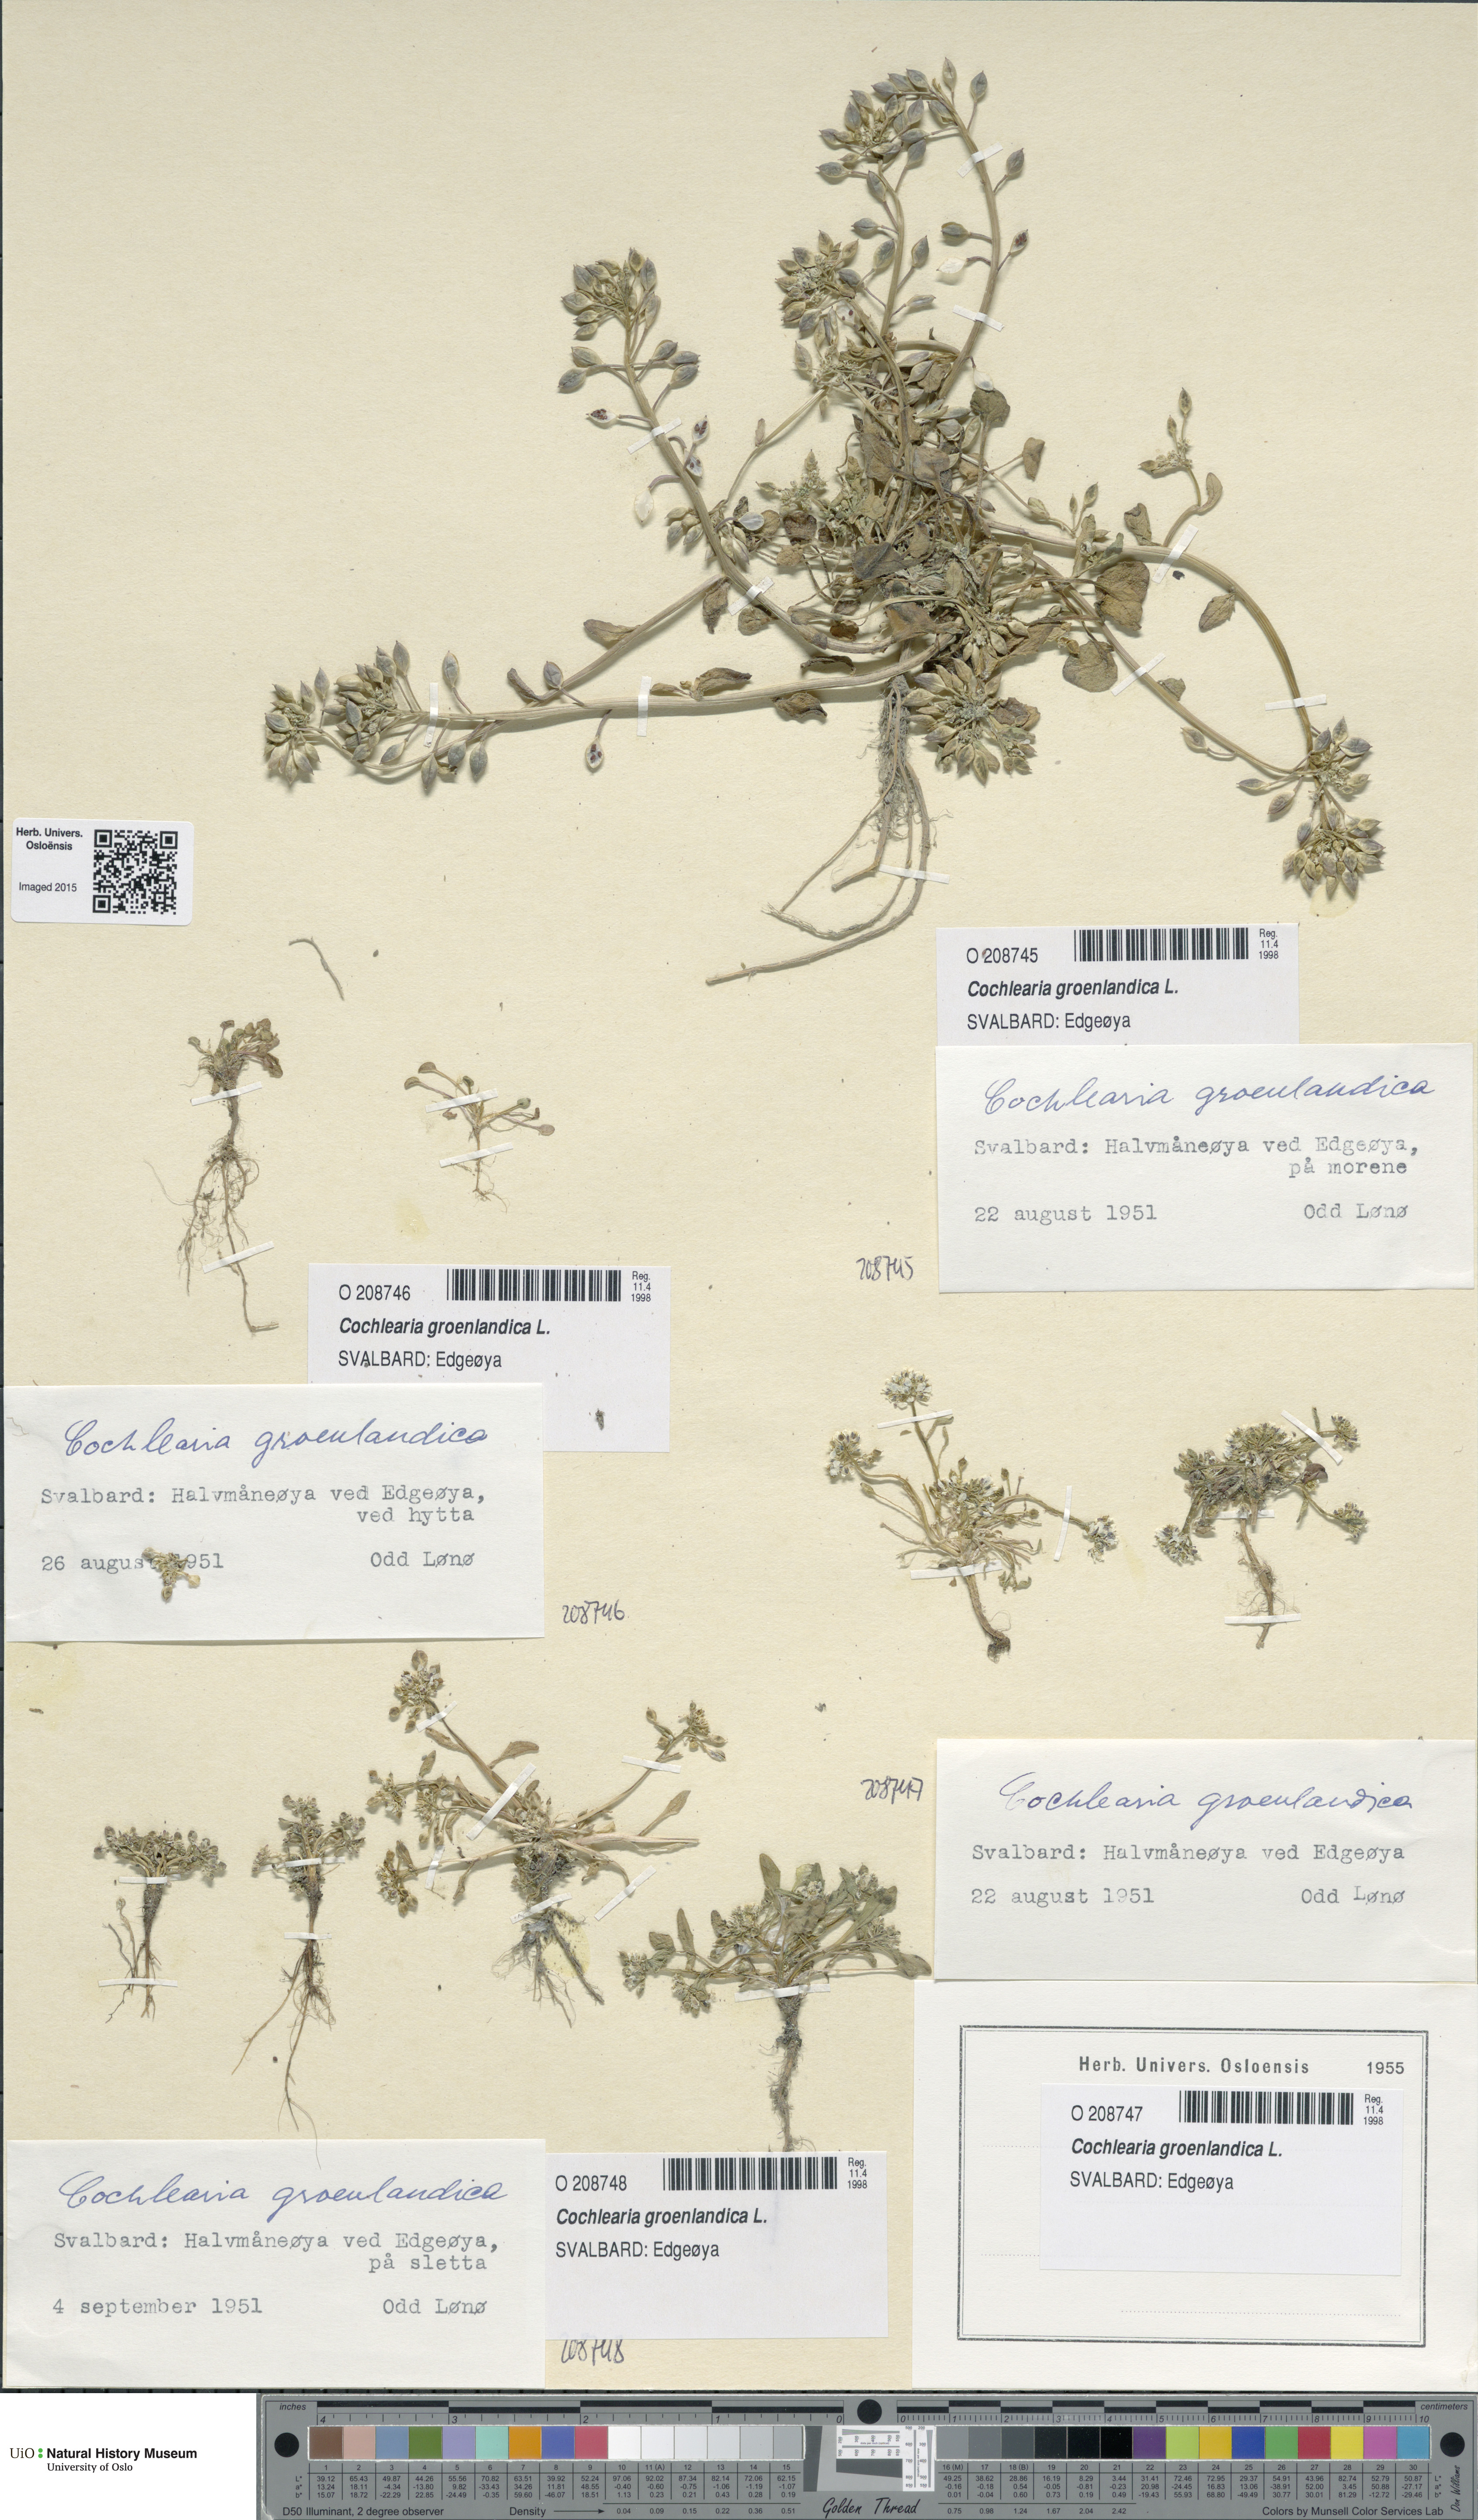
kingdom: Plantae
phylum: Tracheophyta
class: Magnoliopsida
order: Brassicales
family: Brassicaceae
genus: Cochlearia
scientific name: Cochlearia groenlandica
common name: Danish scurvygrass
